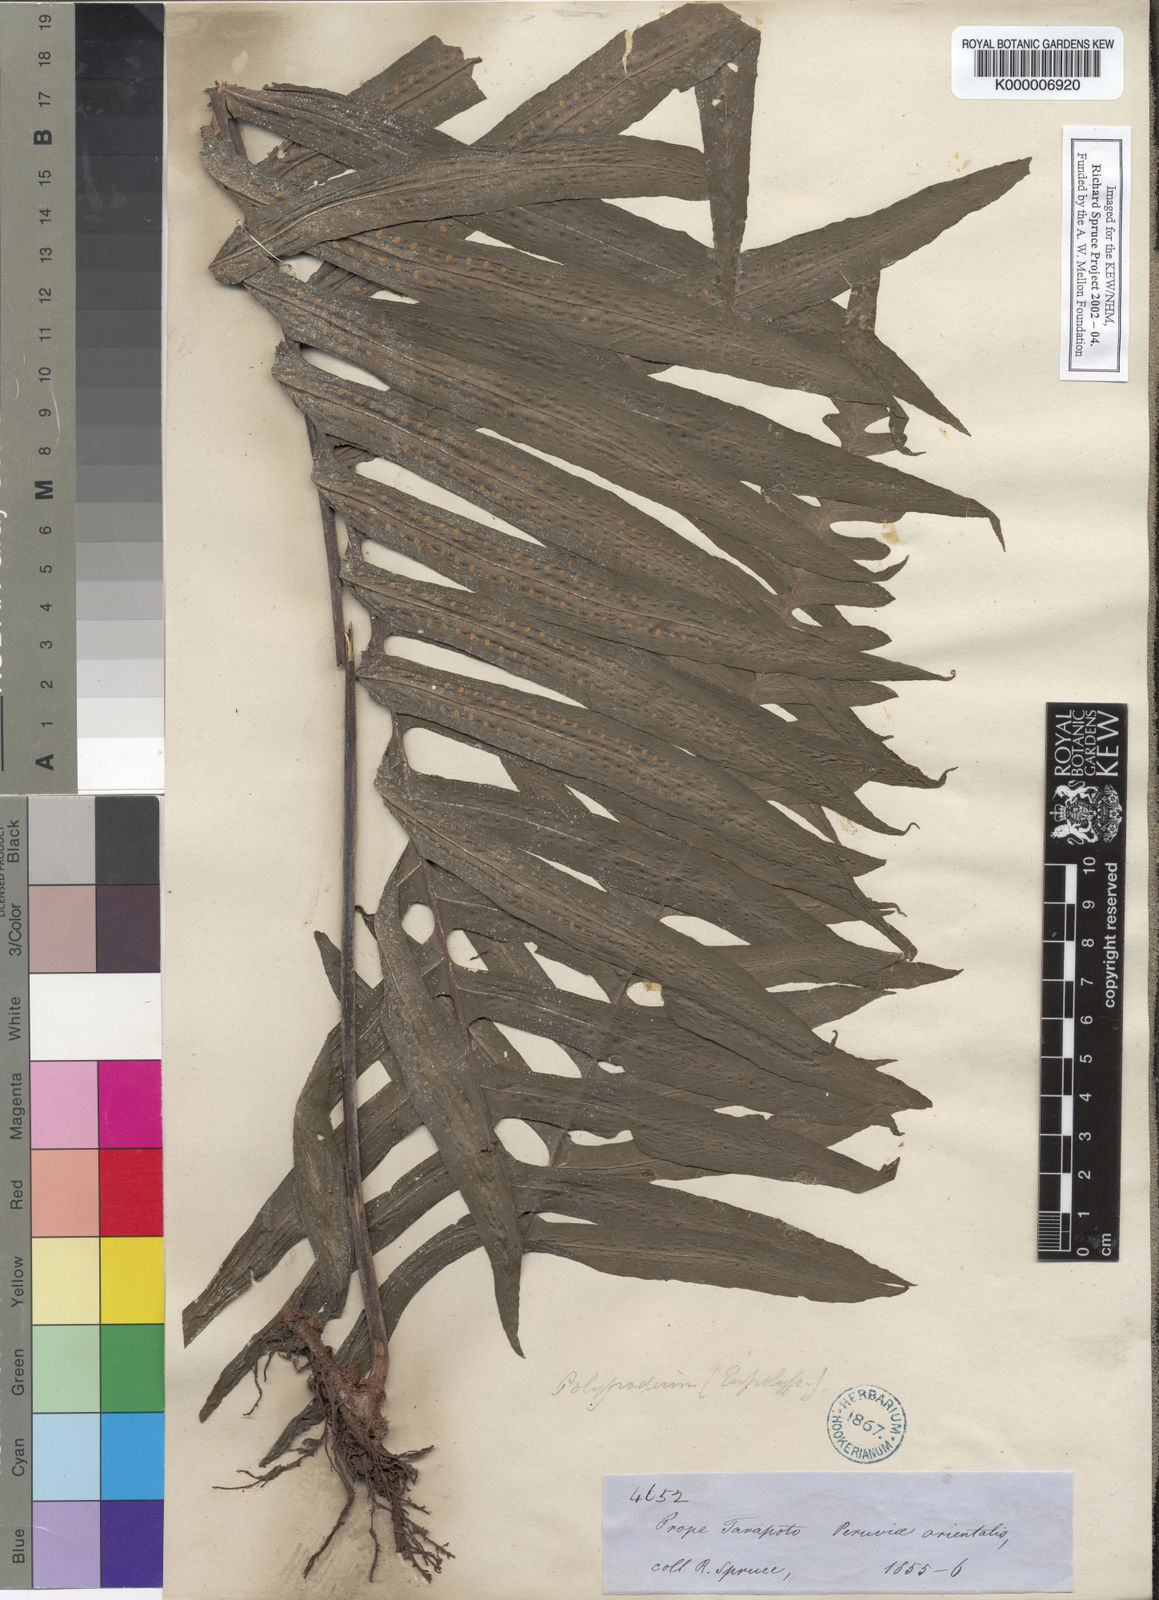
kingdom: Plantae
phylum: Tracheophyta
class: Polypodiopsida
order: Polypodiales
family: Polypodiaceae
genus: Pecluma
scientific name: Pecluma dulcis
